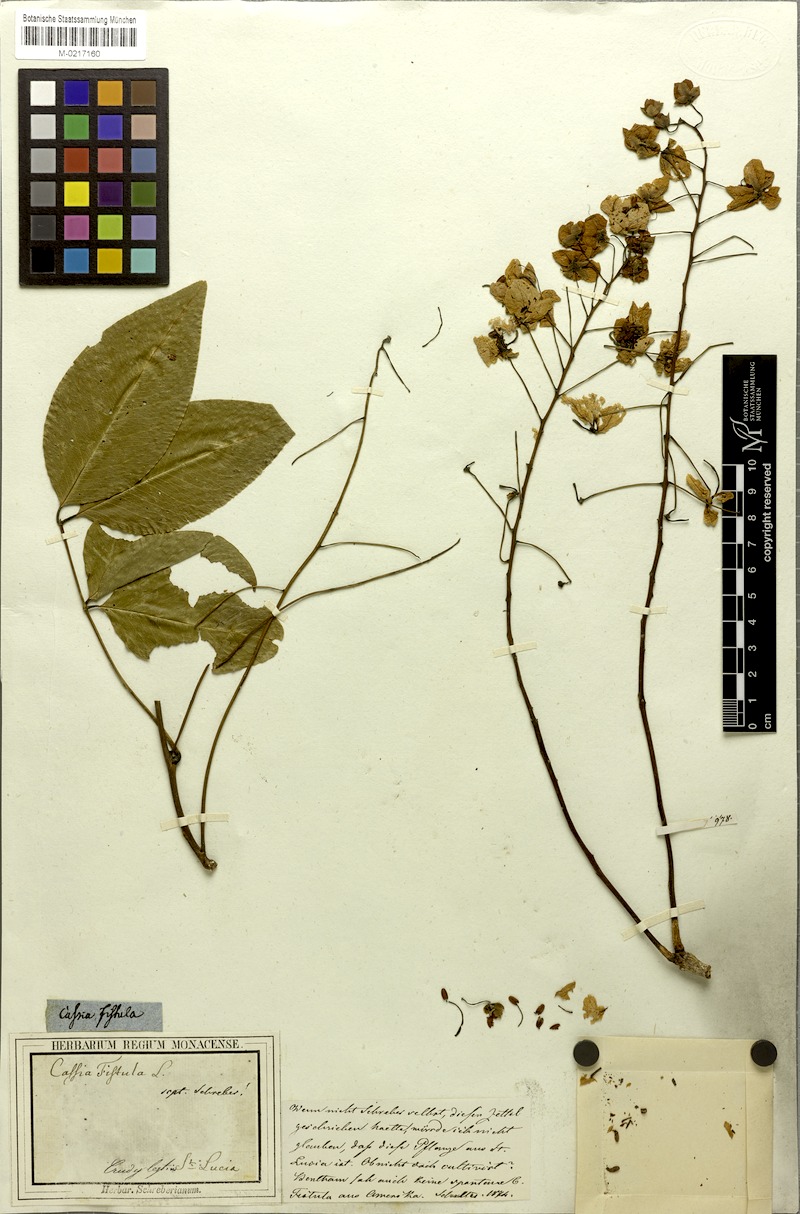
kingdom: Plantae
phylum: Tracheophyta
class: Magnoliopsida
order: Fabales
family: Fabaceae
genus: Cassia
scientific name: Cassia fistula
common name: Golden shower
